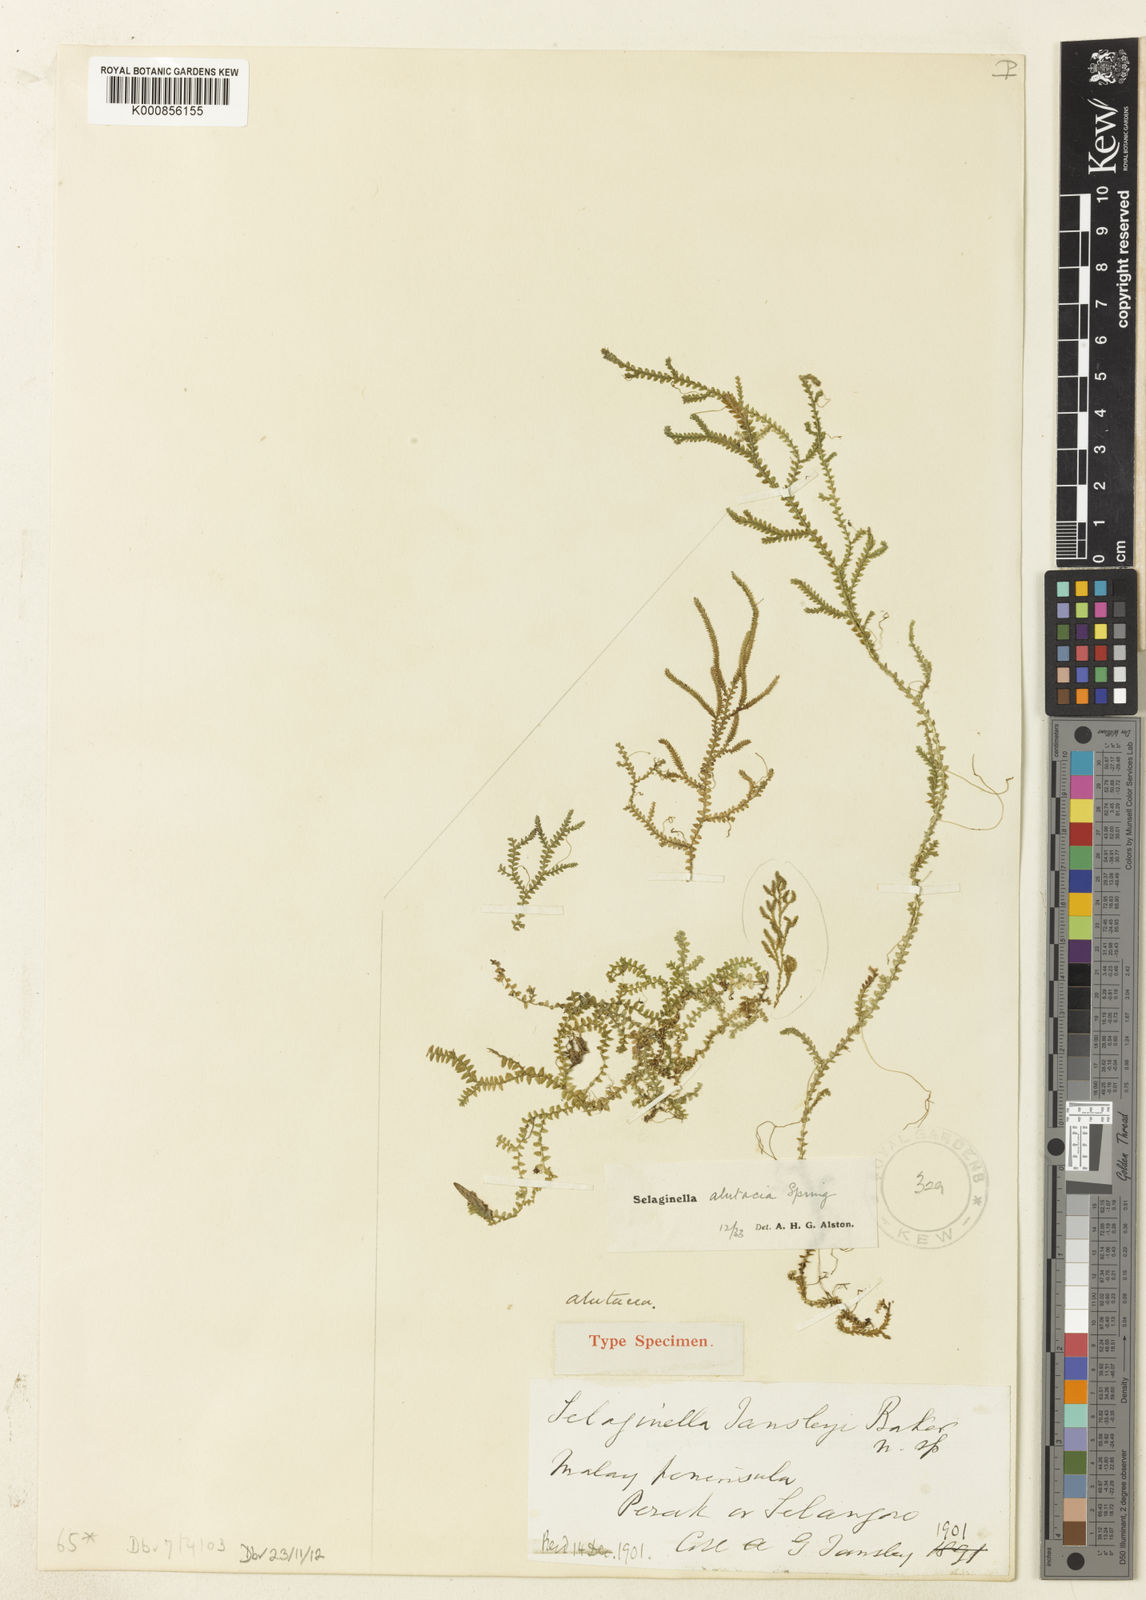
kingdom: Plantae
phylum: Tracheophyta
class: Lycopodiopsida
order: Selaginellales
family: Selaginellaceae
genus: Selaginella
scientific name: Selaginella
